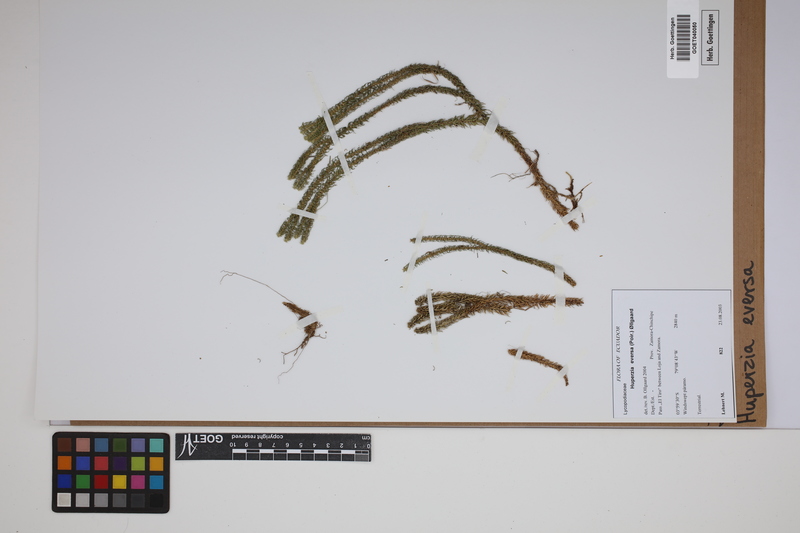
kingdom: Plantae
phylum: Tracheophyta
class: Lycopodiopsida
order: Lycopodiales
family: Lycopodiaceae
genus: Phlegmariurus
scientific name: Phlegmariurus eversus
